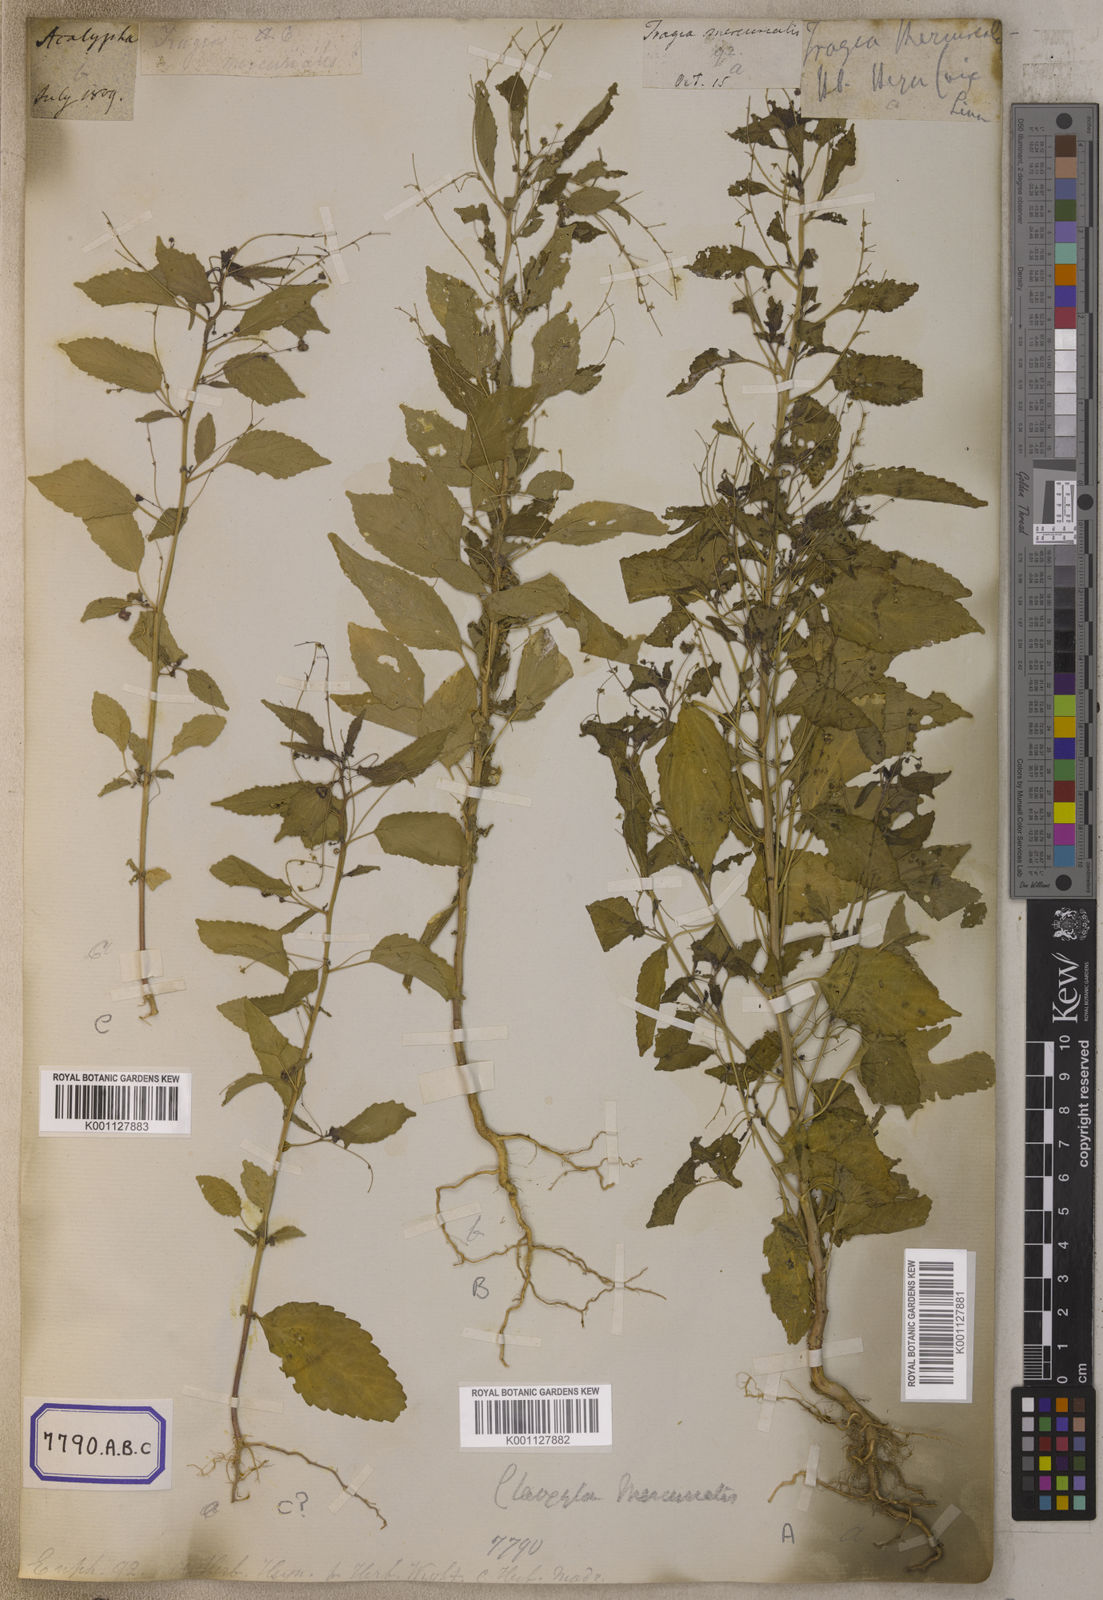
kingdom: Plantae
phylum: Tracheophyta
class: Magnoliopsida
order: Malpighiales
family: Euphorbiaceae
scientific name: Euphorbiaceae
